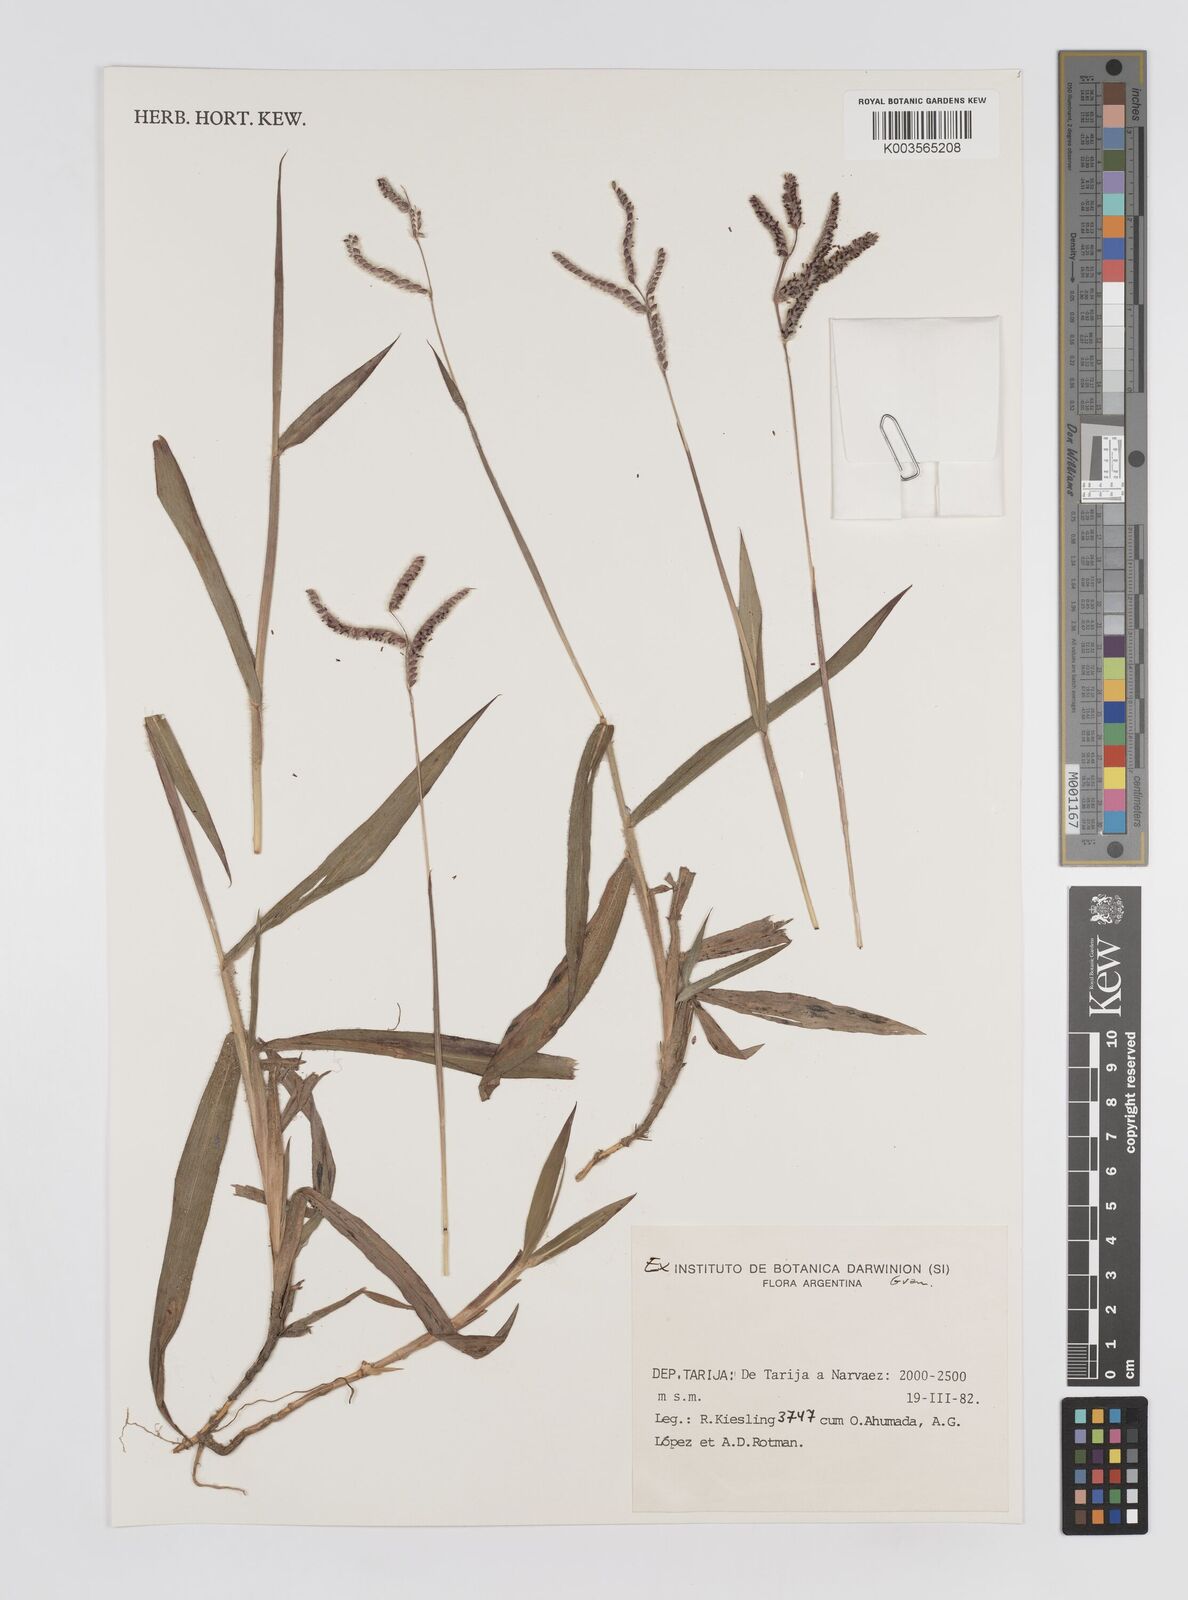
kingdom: Plantae
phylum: Tracheophyta
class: Liliopsida
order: Poales
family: Poaceae
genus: Paspalum
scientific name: Paspalum humboldtianum
